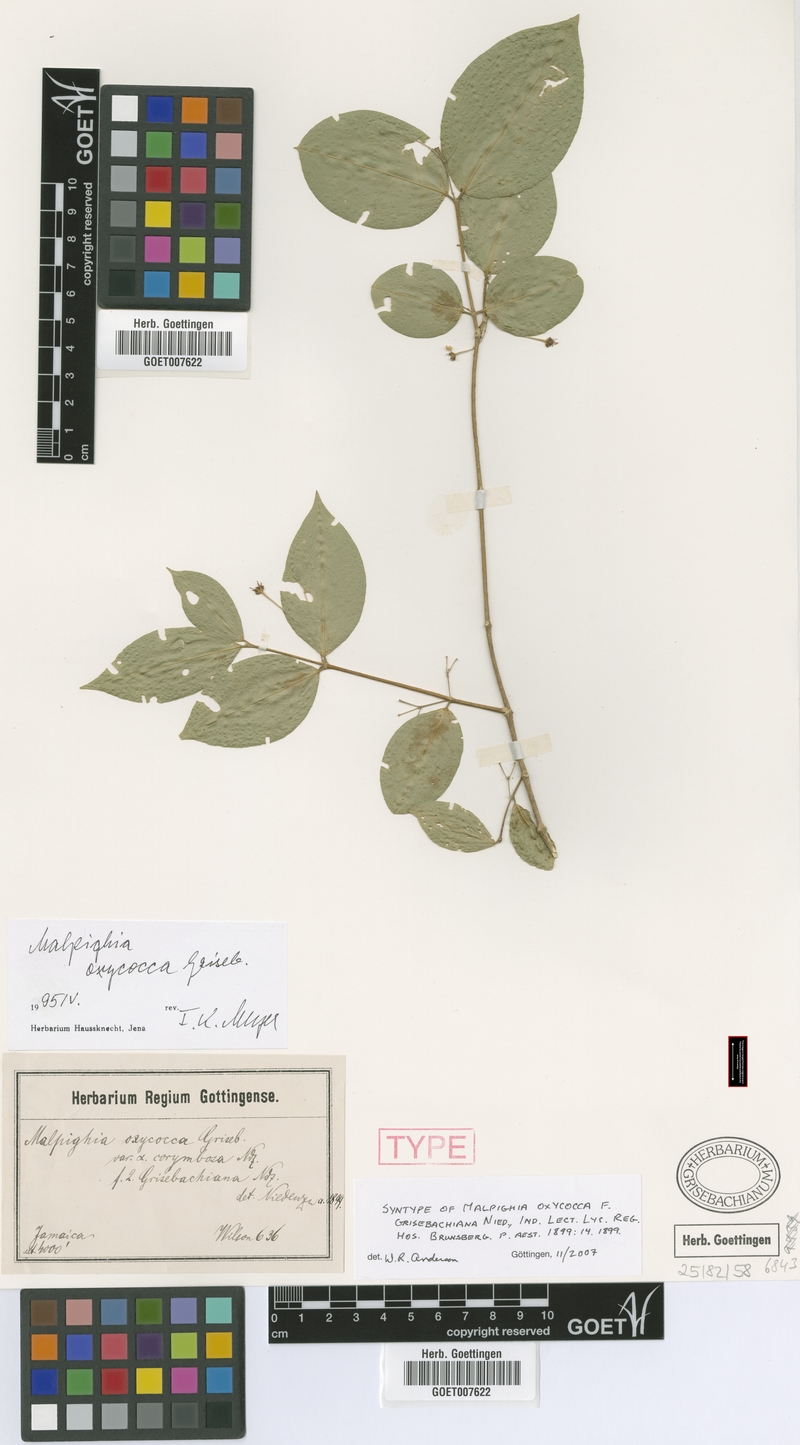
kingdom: Plantae
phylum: Tracheophyta
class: Magnoliopsida
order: Malpighiales
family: Malpighiaceae
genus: Malpighia
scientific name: Malpighia oxycocca
